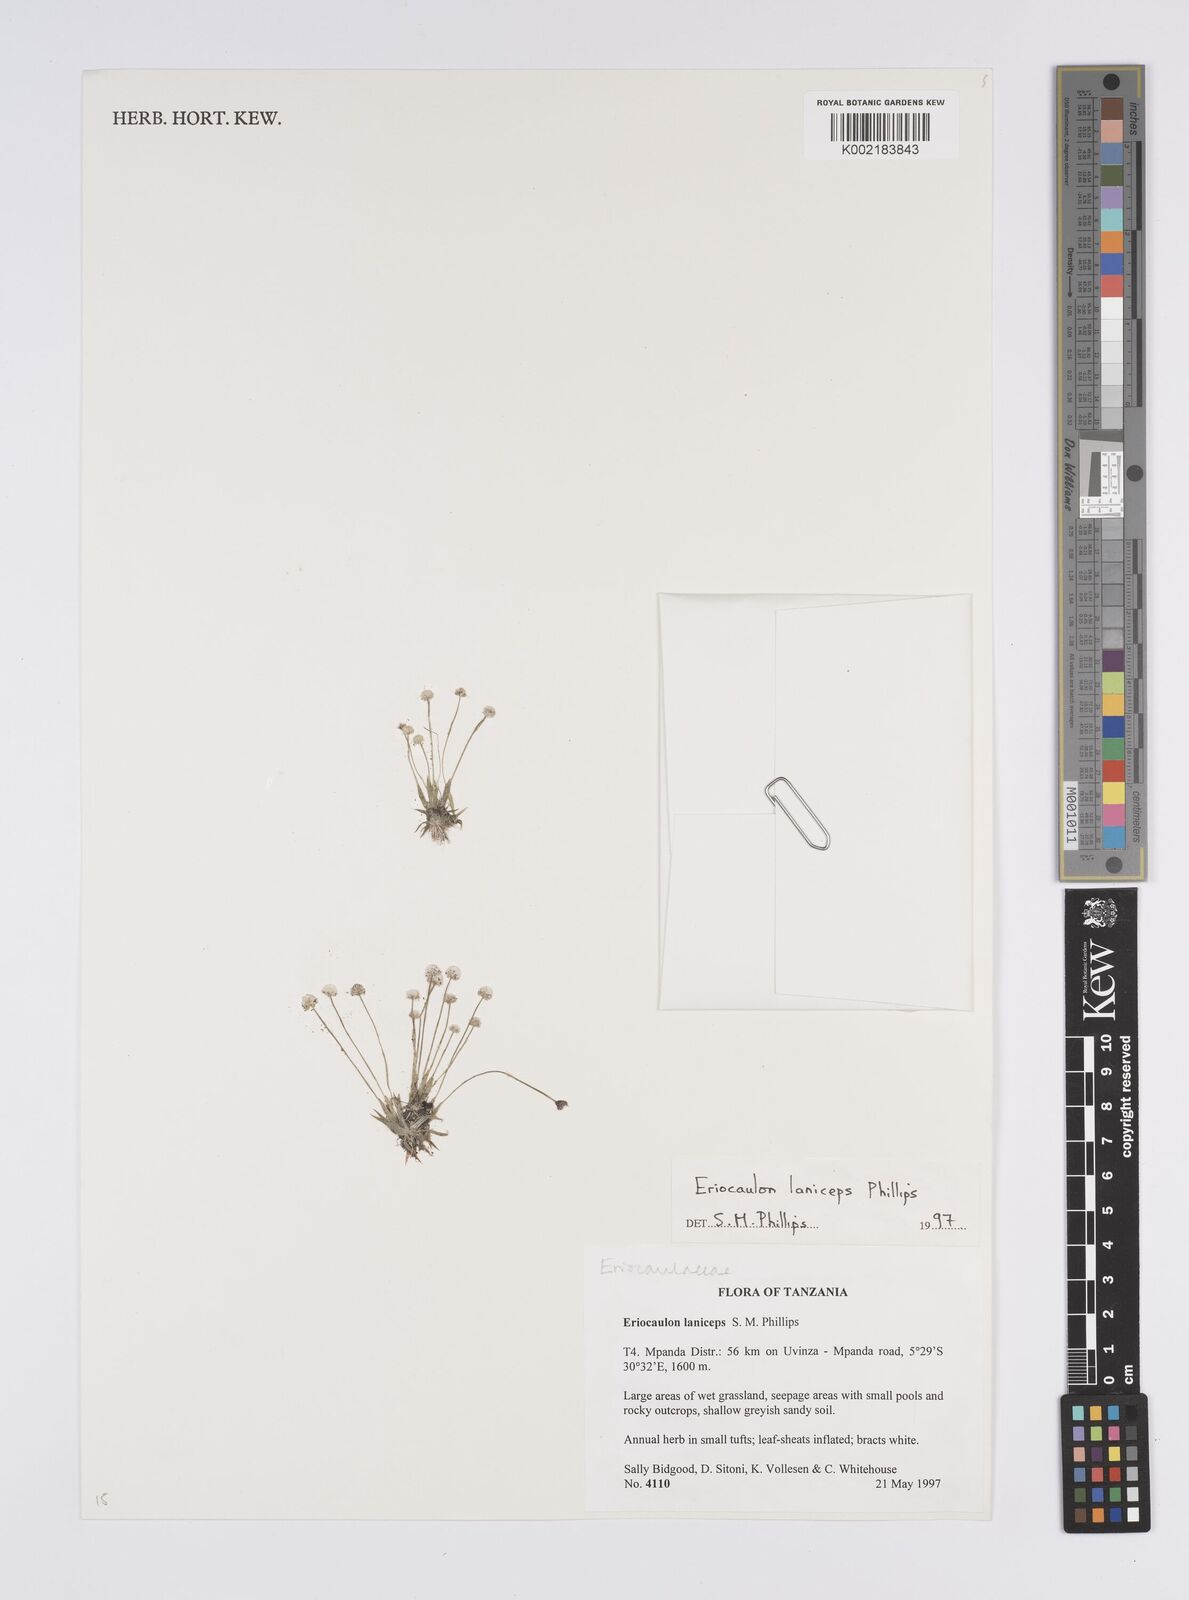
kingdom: Plantae
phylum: Tracheophyta
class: Liliopsida
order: Poales
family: Eriocaulaceae
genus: Eriocaulon
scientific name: Eriocaulon laniceps
